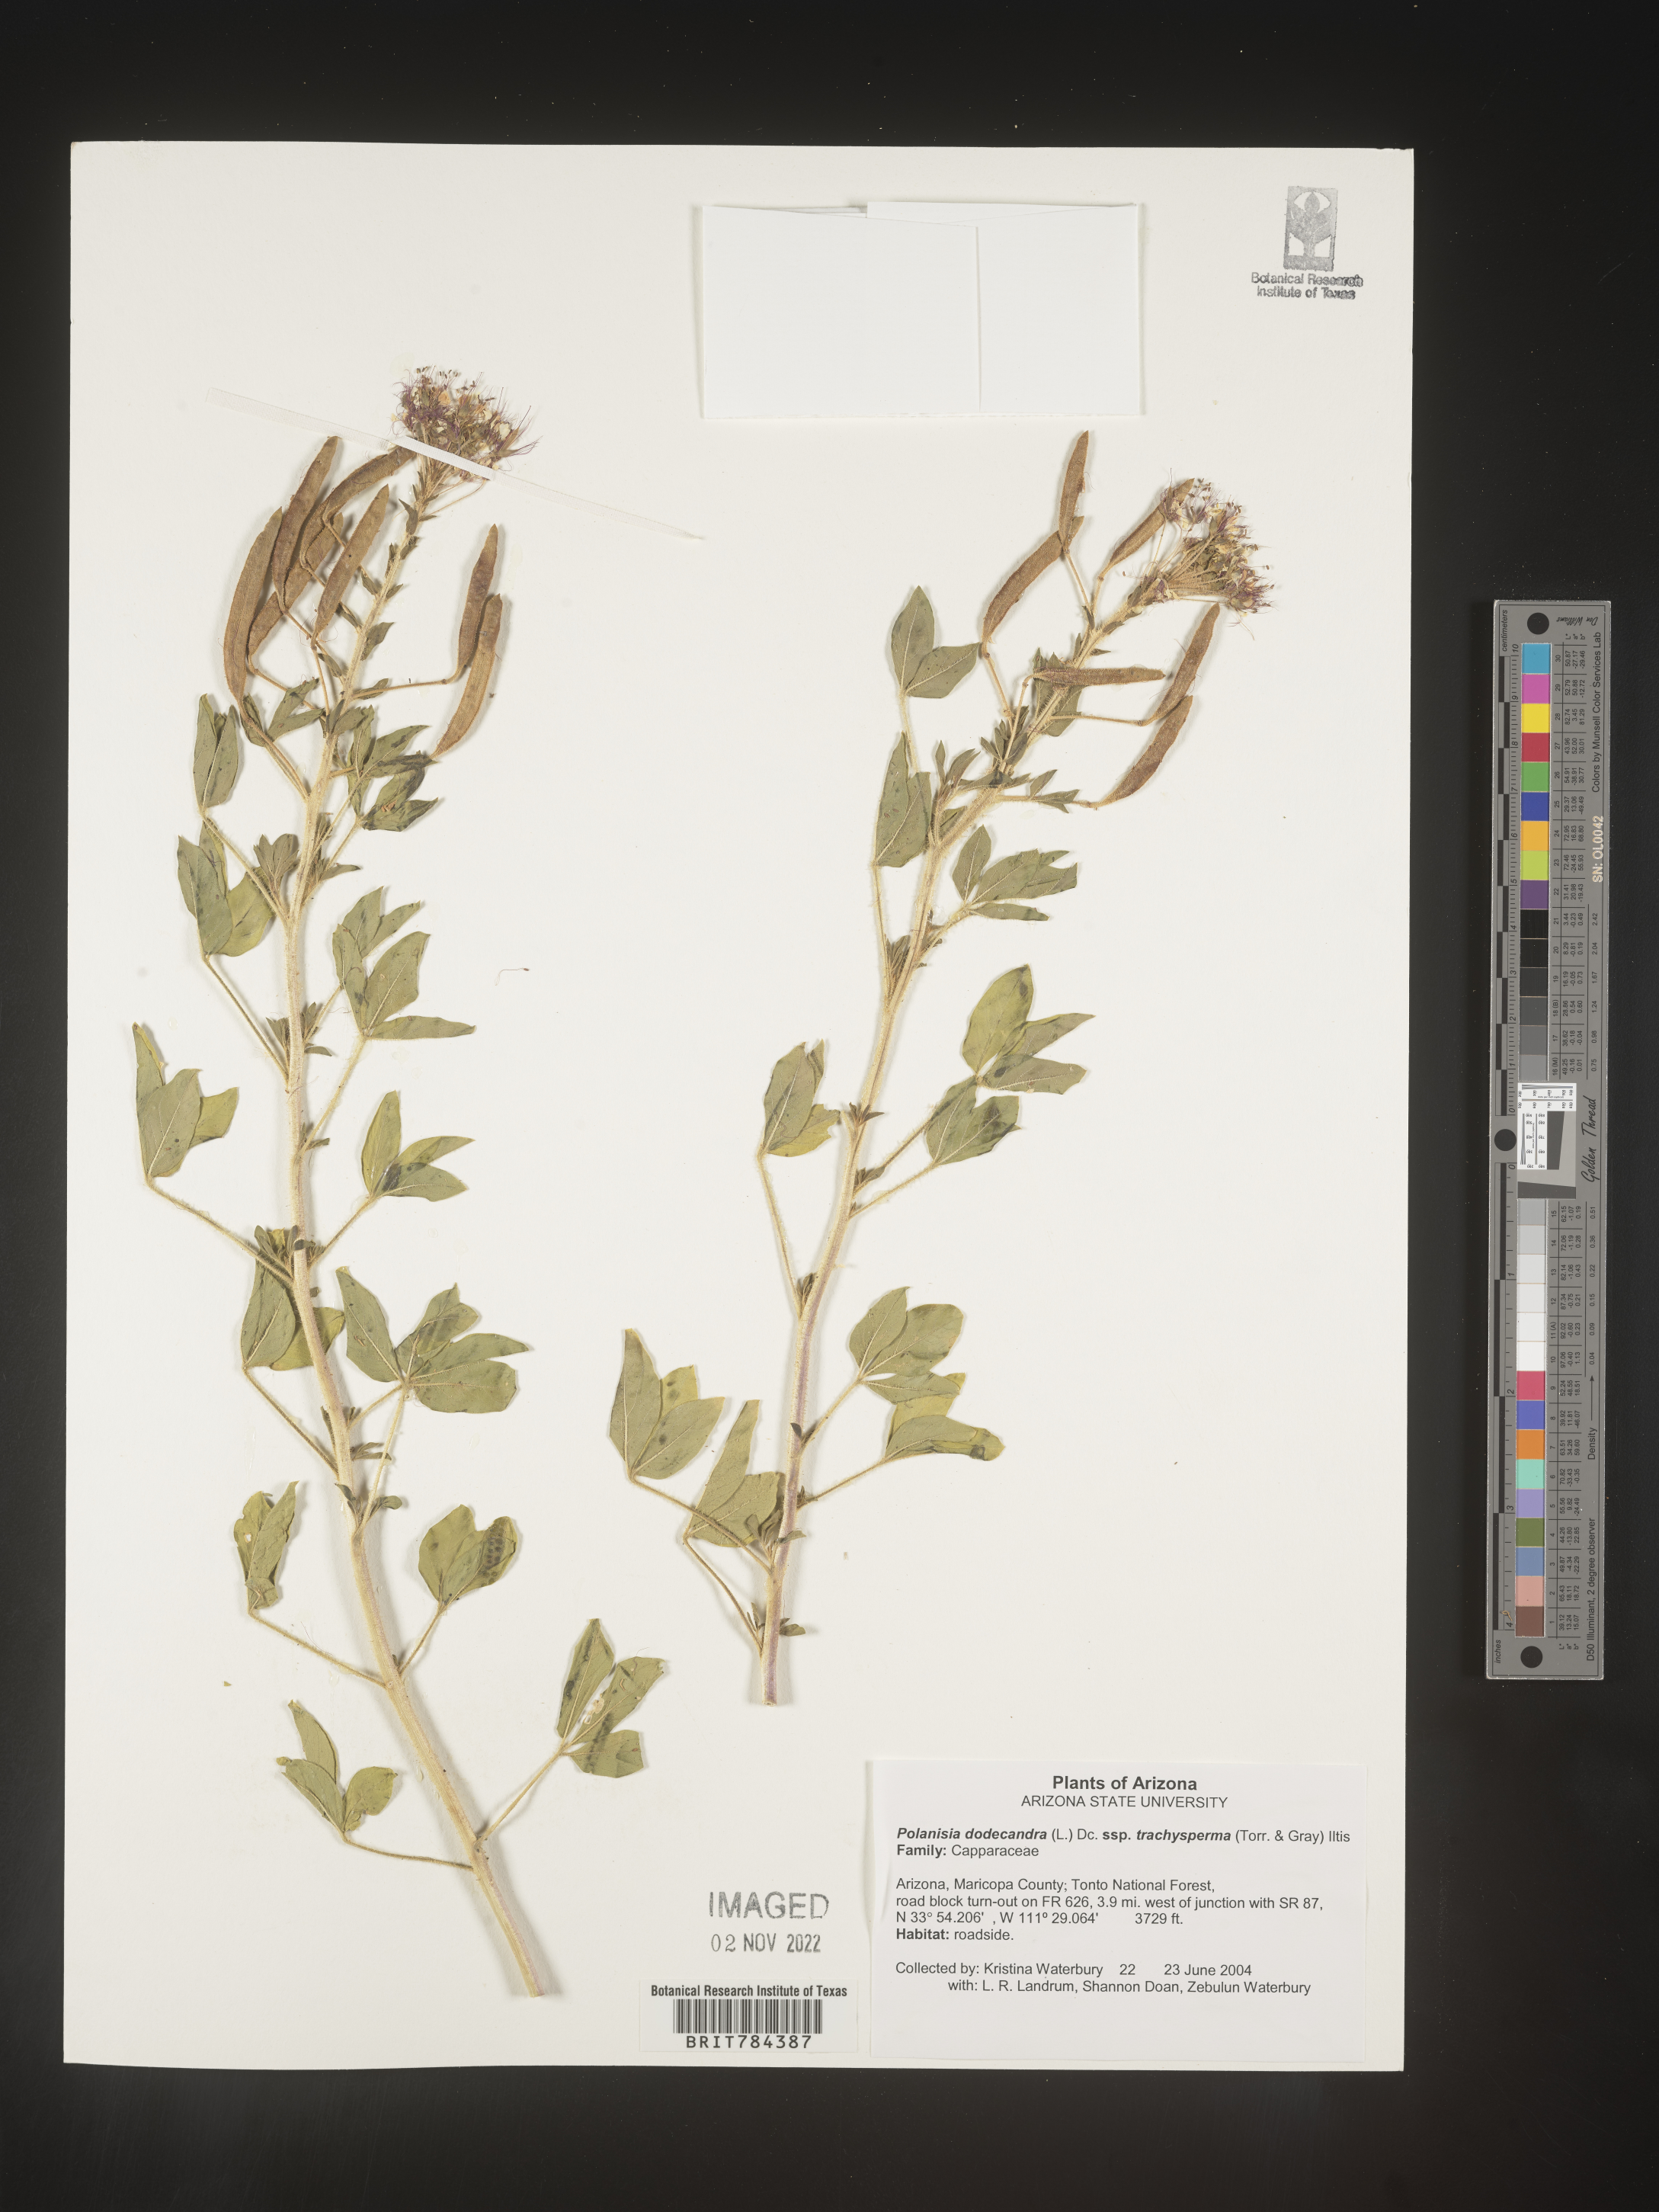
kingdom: Plantae
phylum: Tracheophyta
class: Magnoliopsida
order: Brassicales
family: Cleomaceae
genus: Polanisia
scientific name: Polanisia dodecandra
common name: Clammyweed
